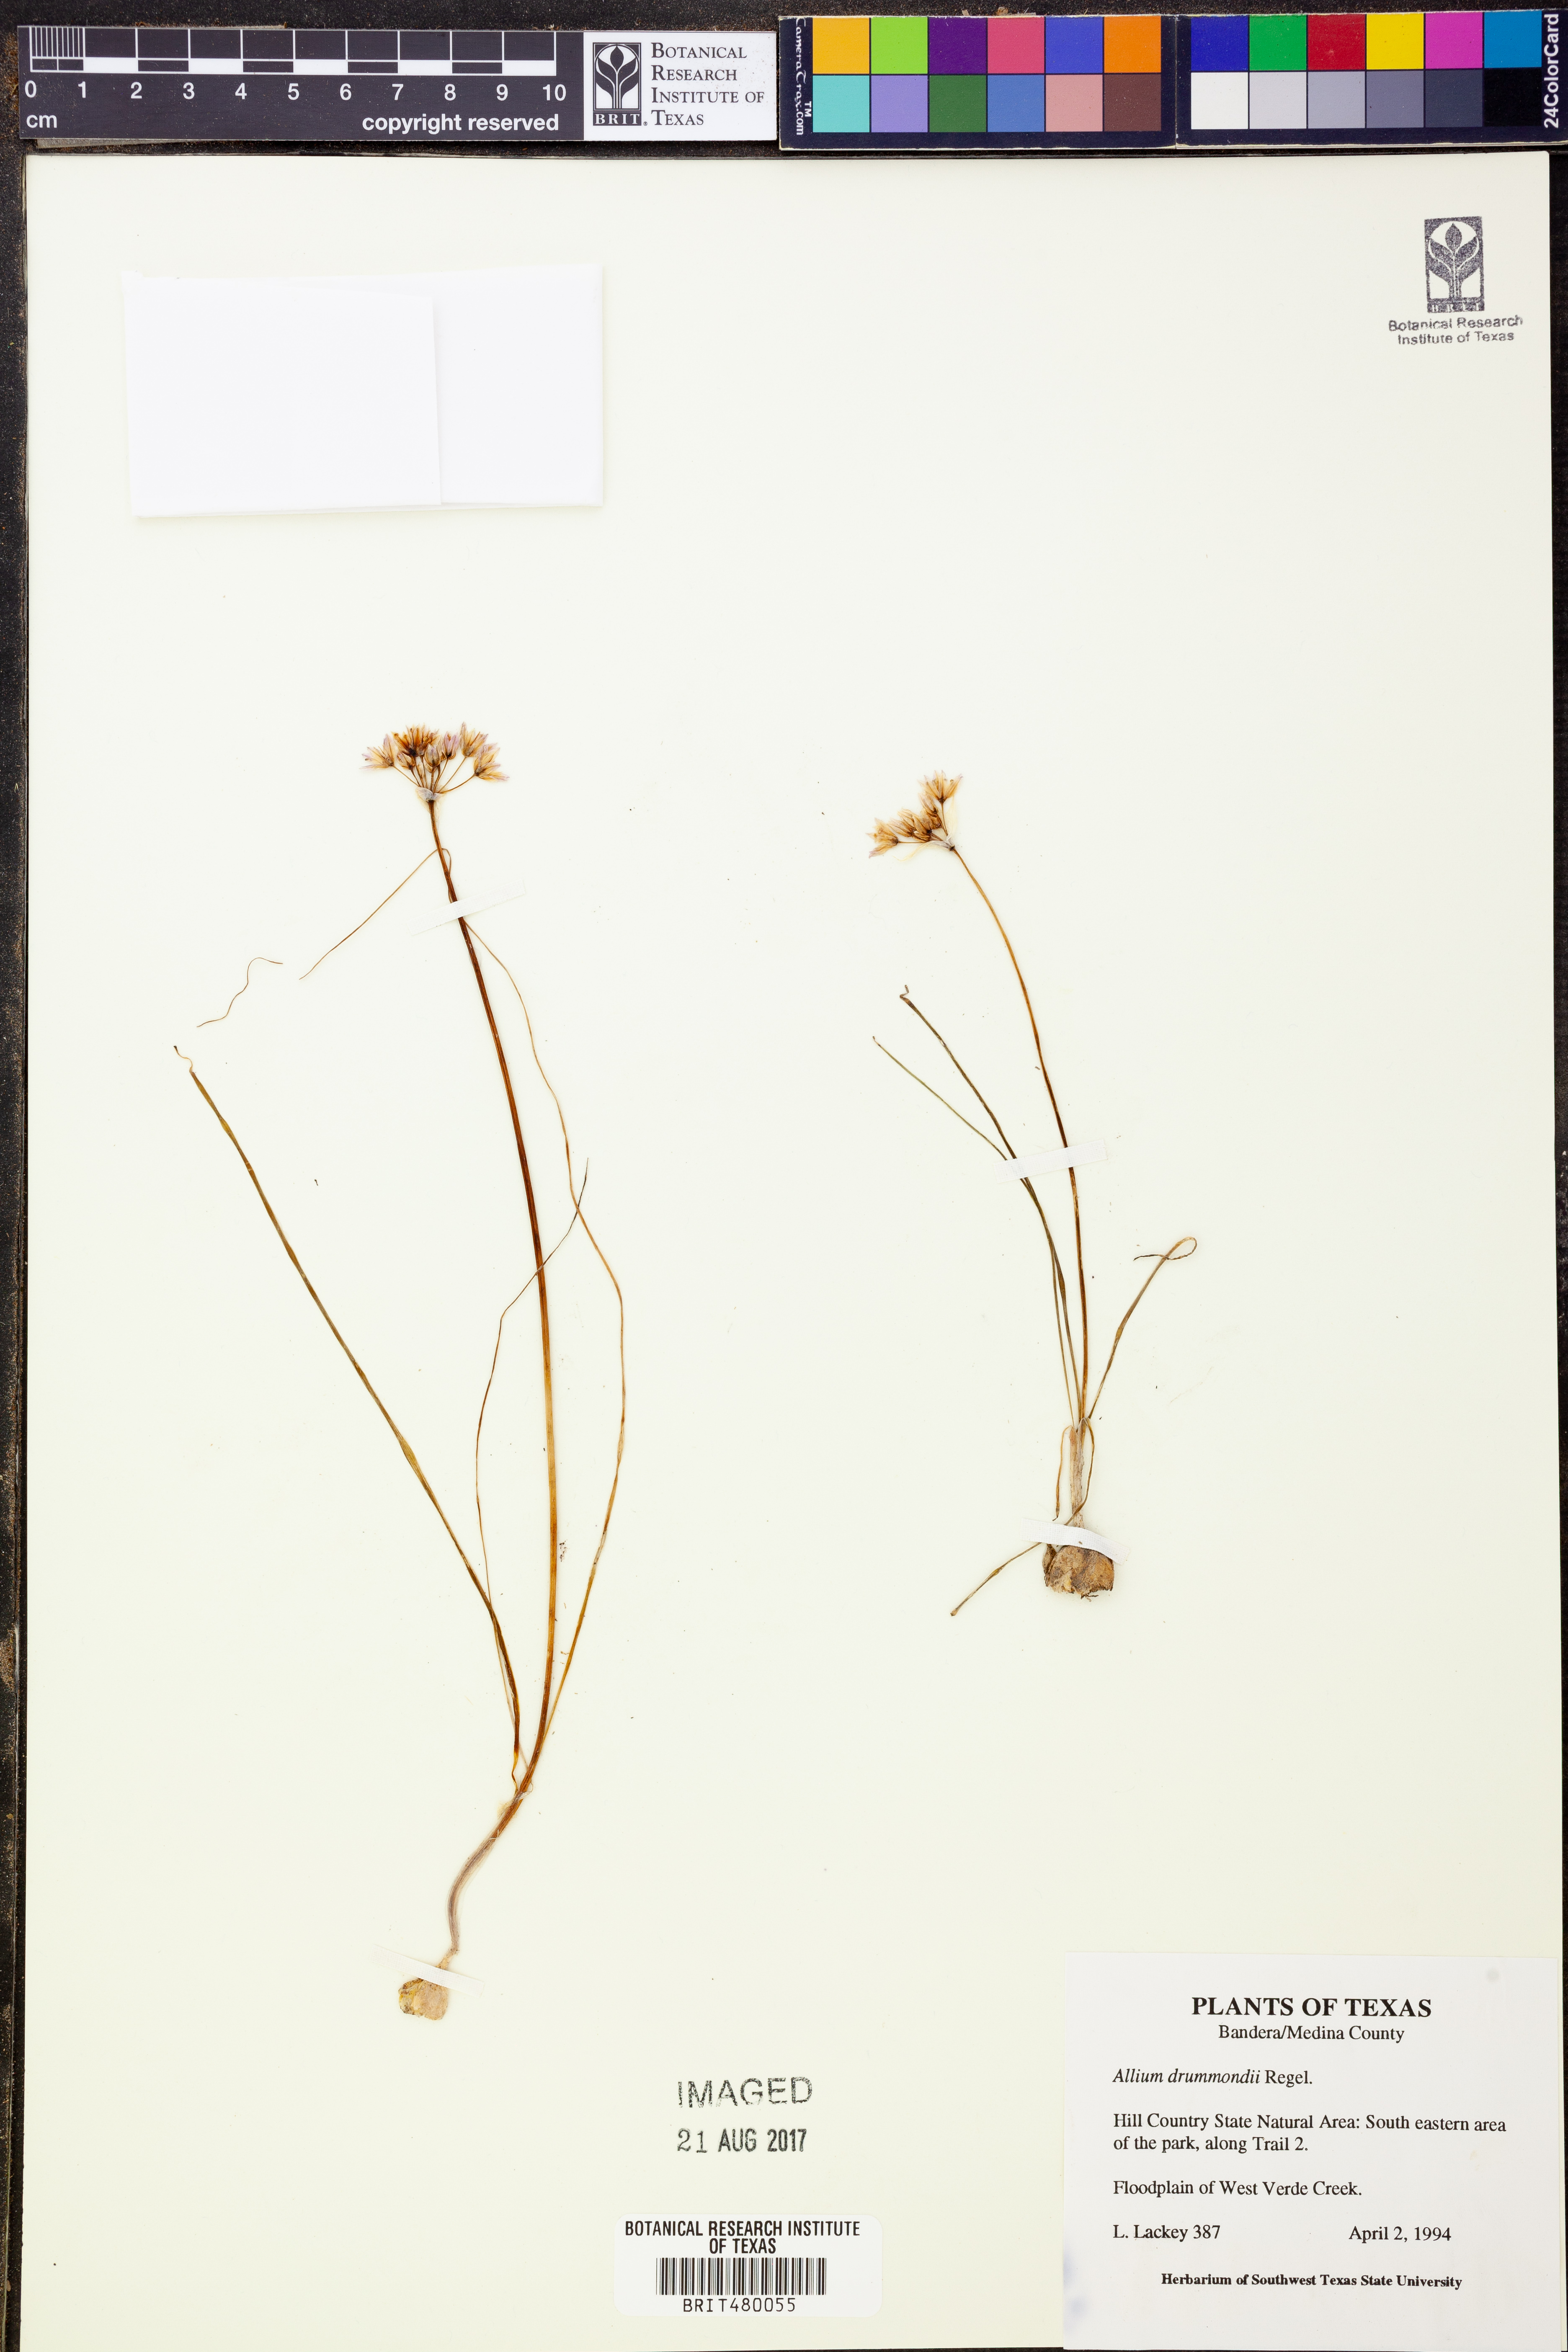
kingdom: Plantae
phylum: Tracheophyta
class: Liliopsida
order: Asparagales
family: Amaryllidaceae
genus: Allium
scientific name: Allium drummondii
